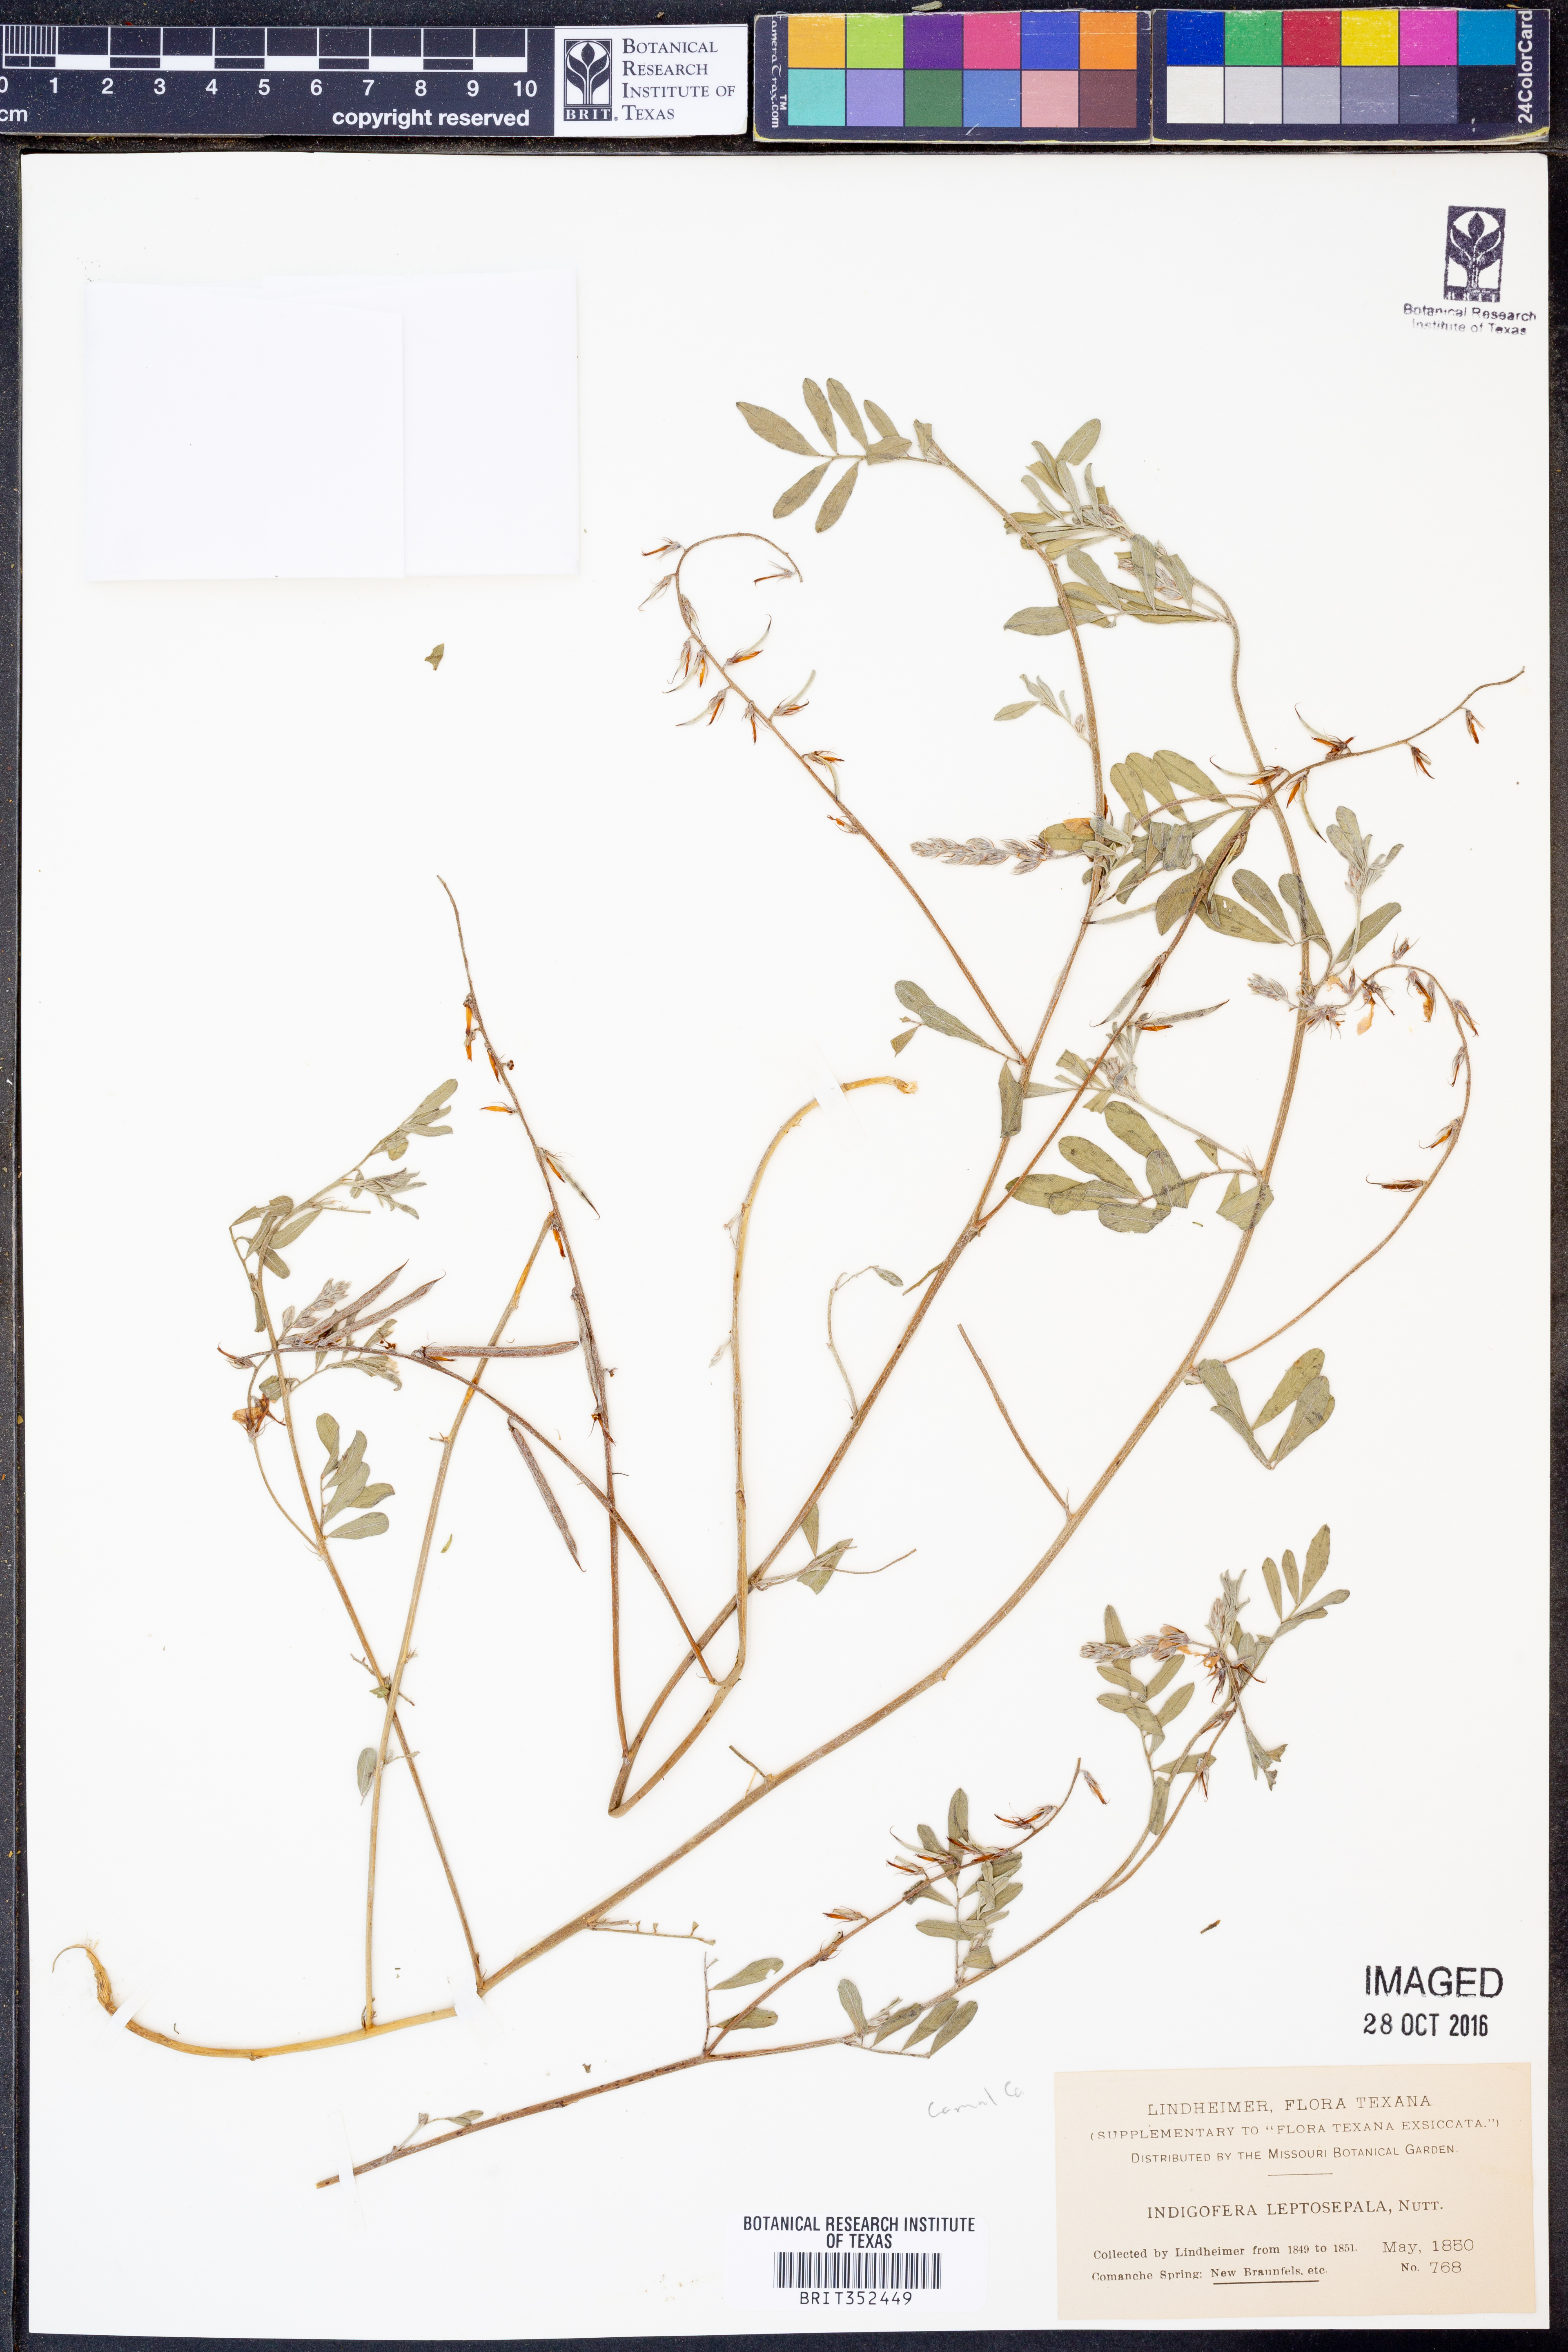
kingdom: Plantae
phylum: Tracheophyta
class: Magnoliopsida
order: Fabales
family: Fabaceae
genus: Indigofera
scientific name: Indigofera argutidens
